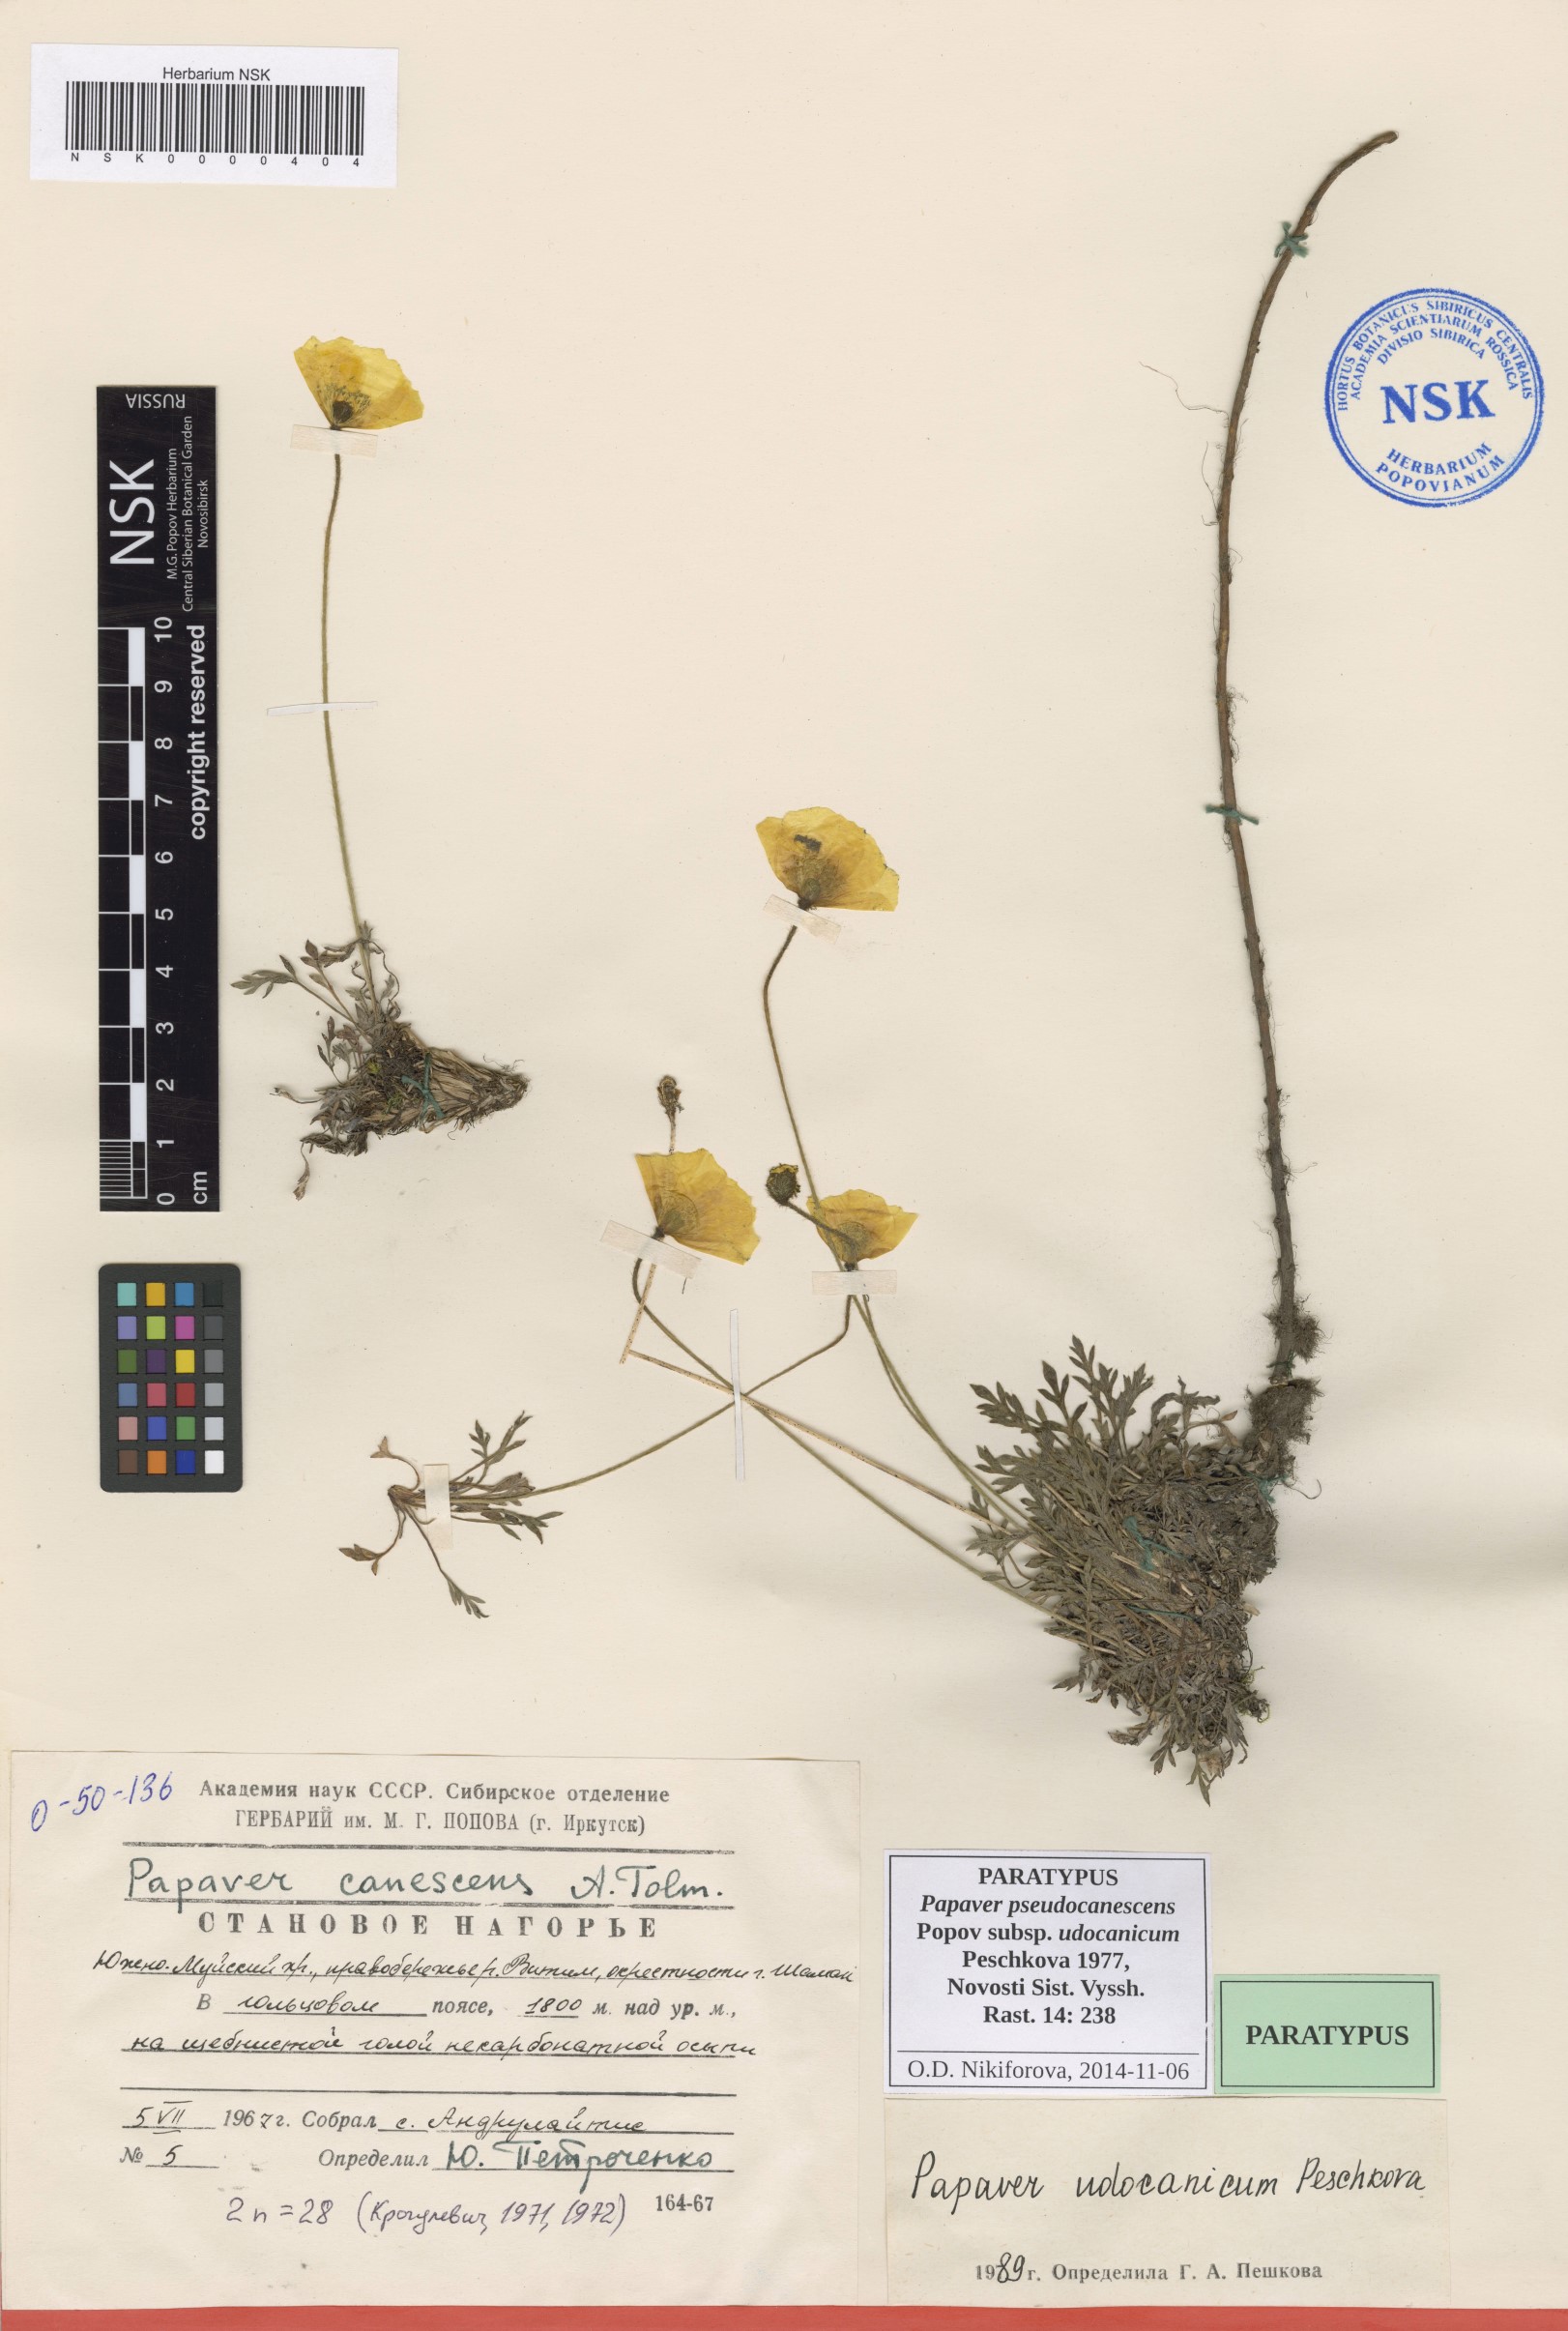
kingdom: Plantae
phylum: Tracheophyta
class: Magnoliopsida
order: Ranunculales
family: Papaveraceae
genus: Papaver
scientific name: Papaver udocanicum
